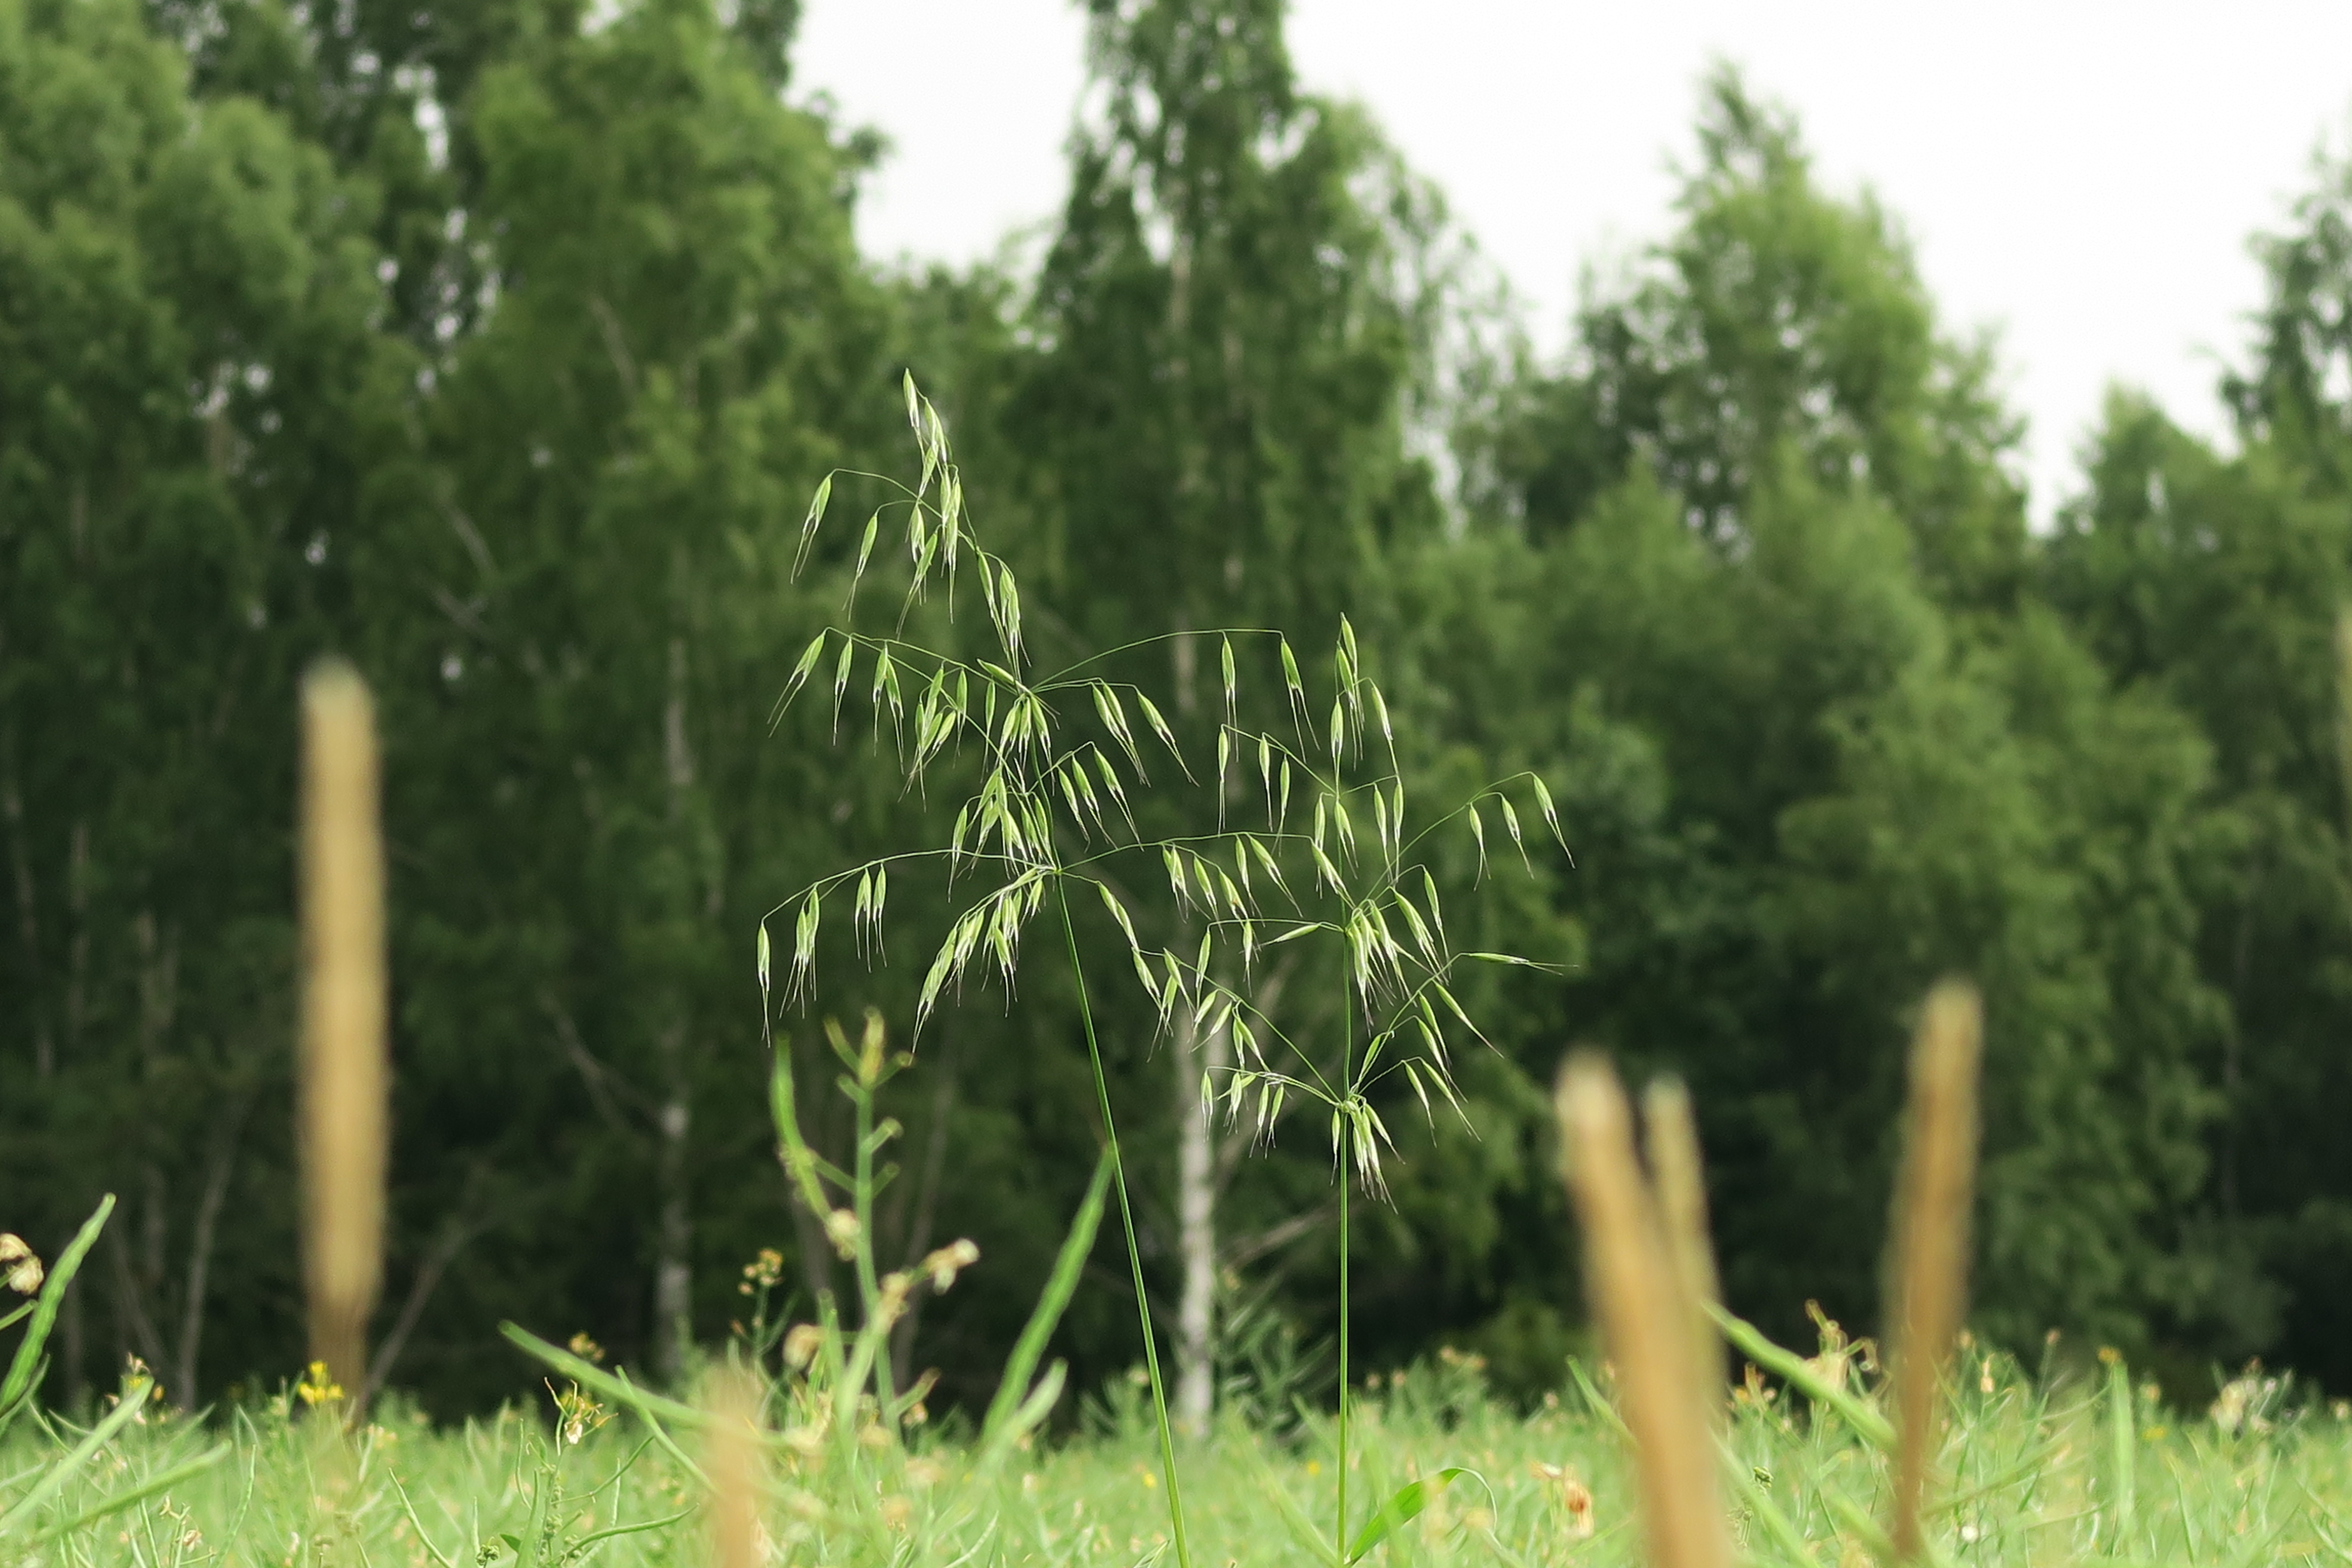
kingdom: Plantae
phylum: Tracheophyta
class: Liliopsida
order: Poales
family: Poaceae
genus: Avena
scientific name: Avena fatua
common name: Wild oat
